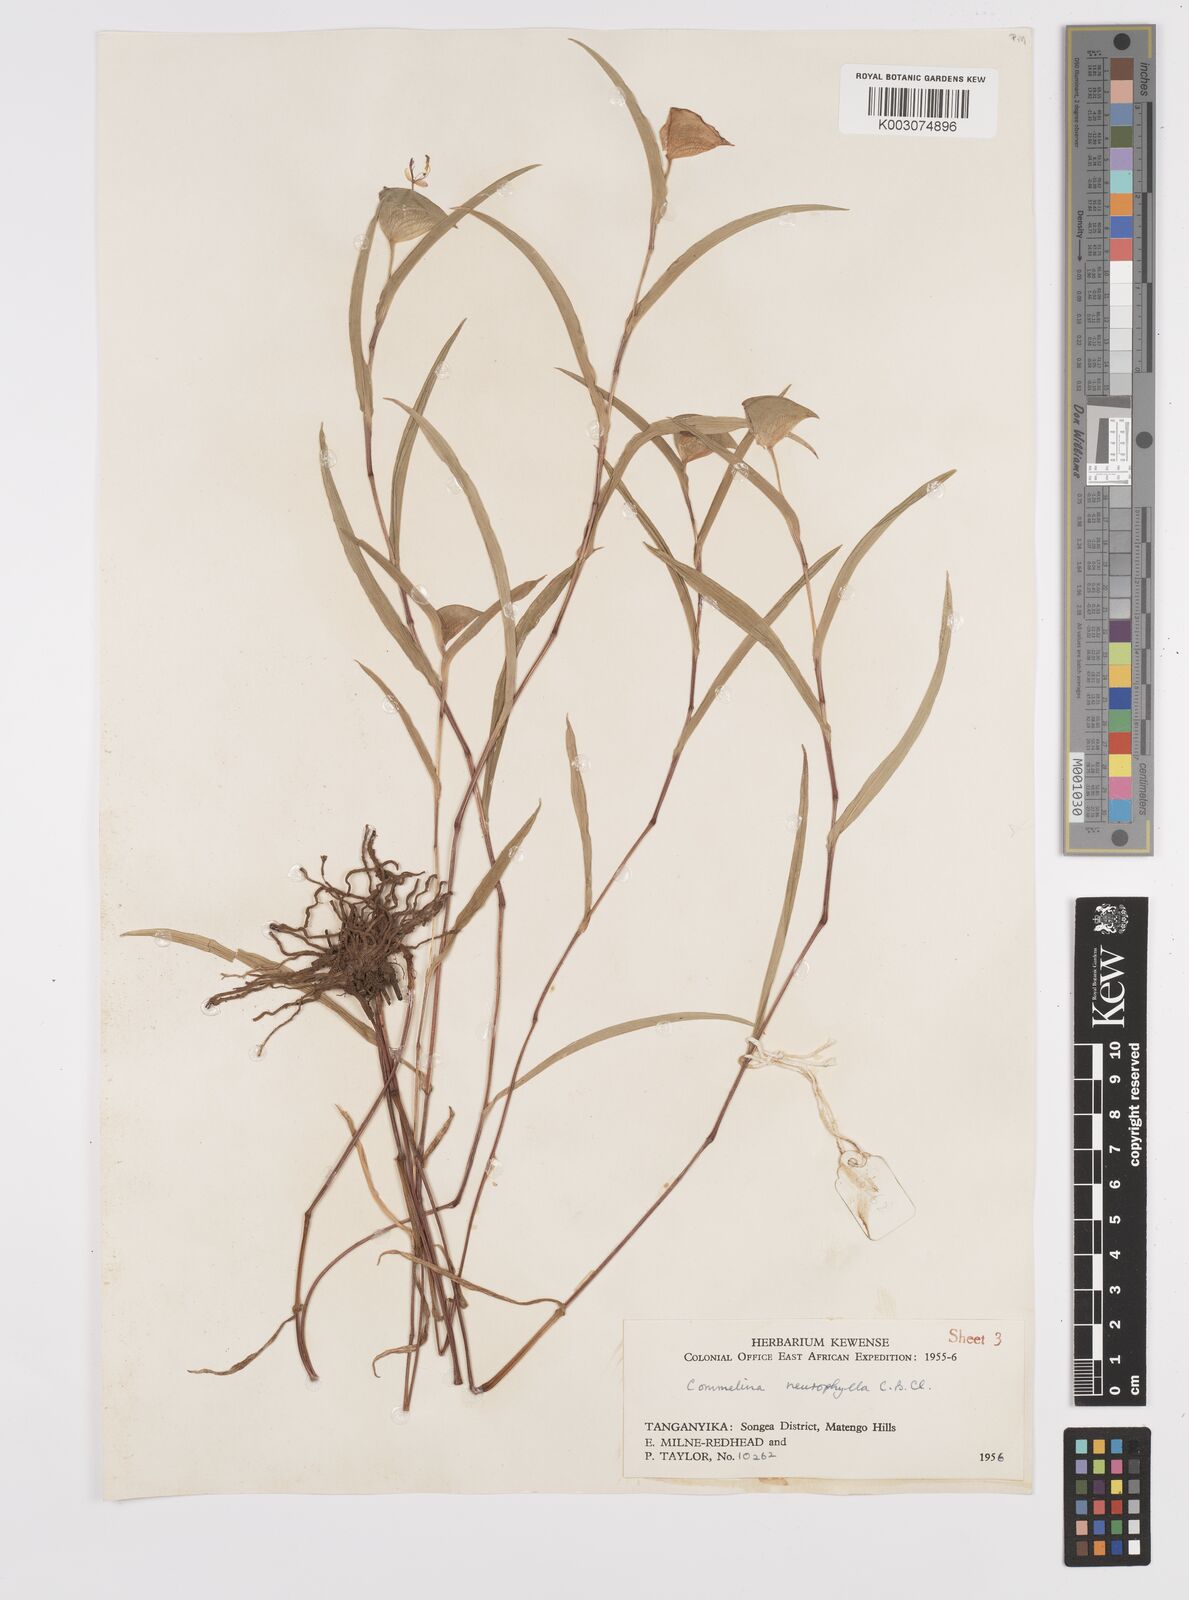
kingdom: Plantae
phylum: Tracheophyta
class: Liliopsida
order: Commelinales
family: Commelinaceae
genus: Commelina
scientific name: Commelina neurophylla
